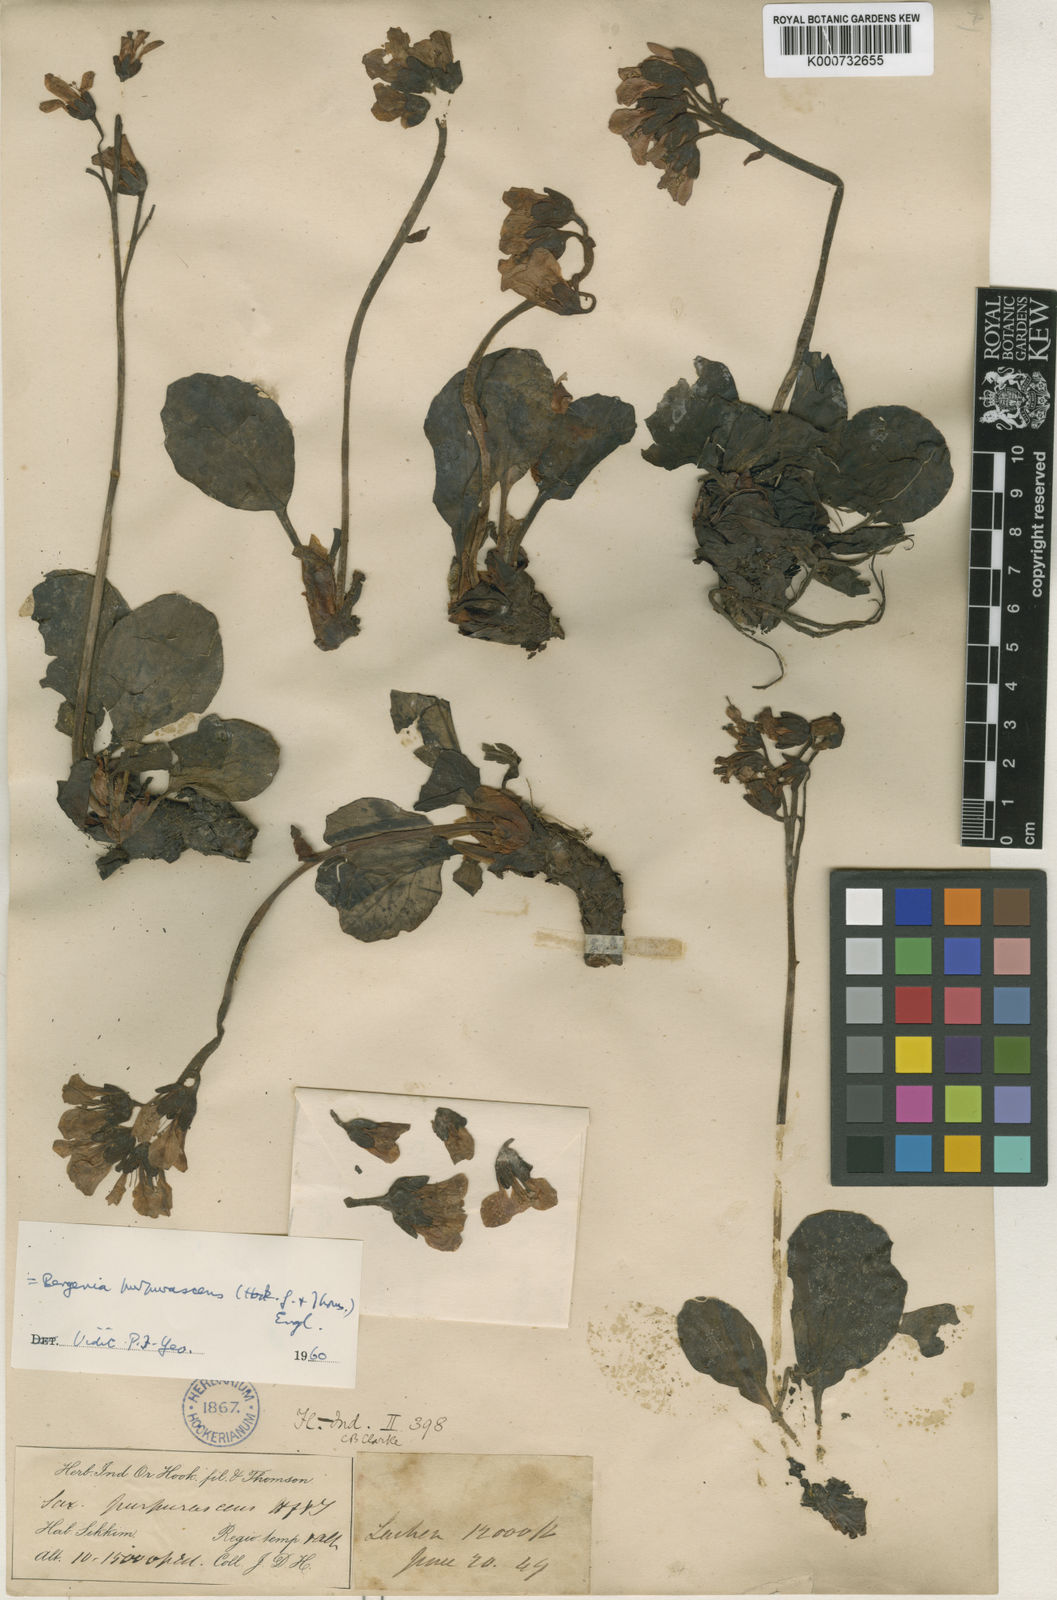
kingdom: Plantae
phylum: Tracheophyta
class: Magnoliopsida
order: Saxifragales
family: Saxifragaceae
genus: Bergenia
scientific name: Bergenia purpurascens
